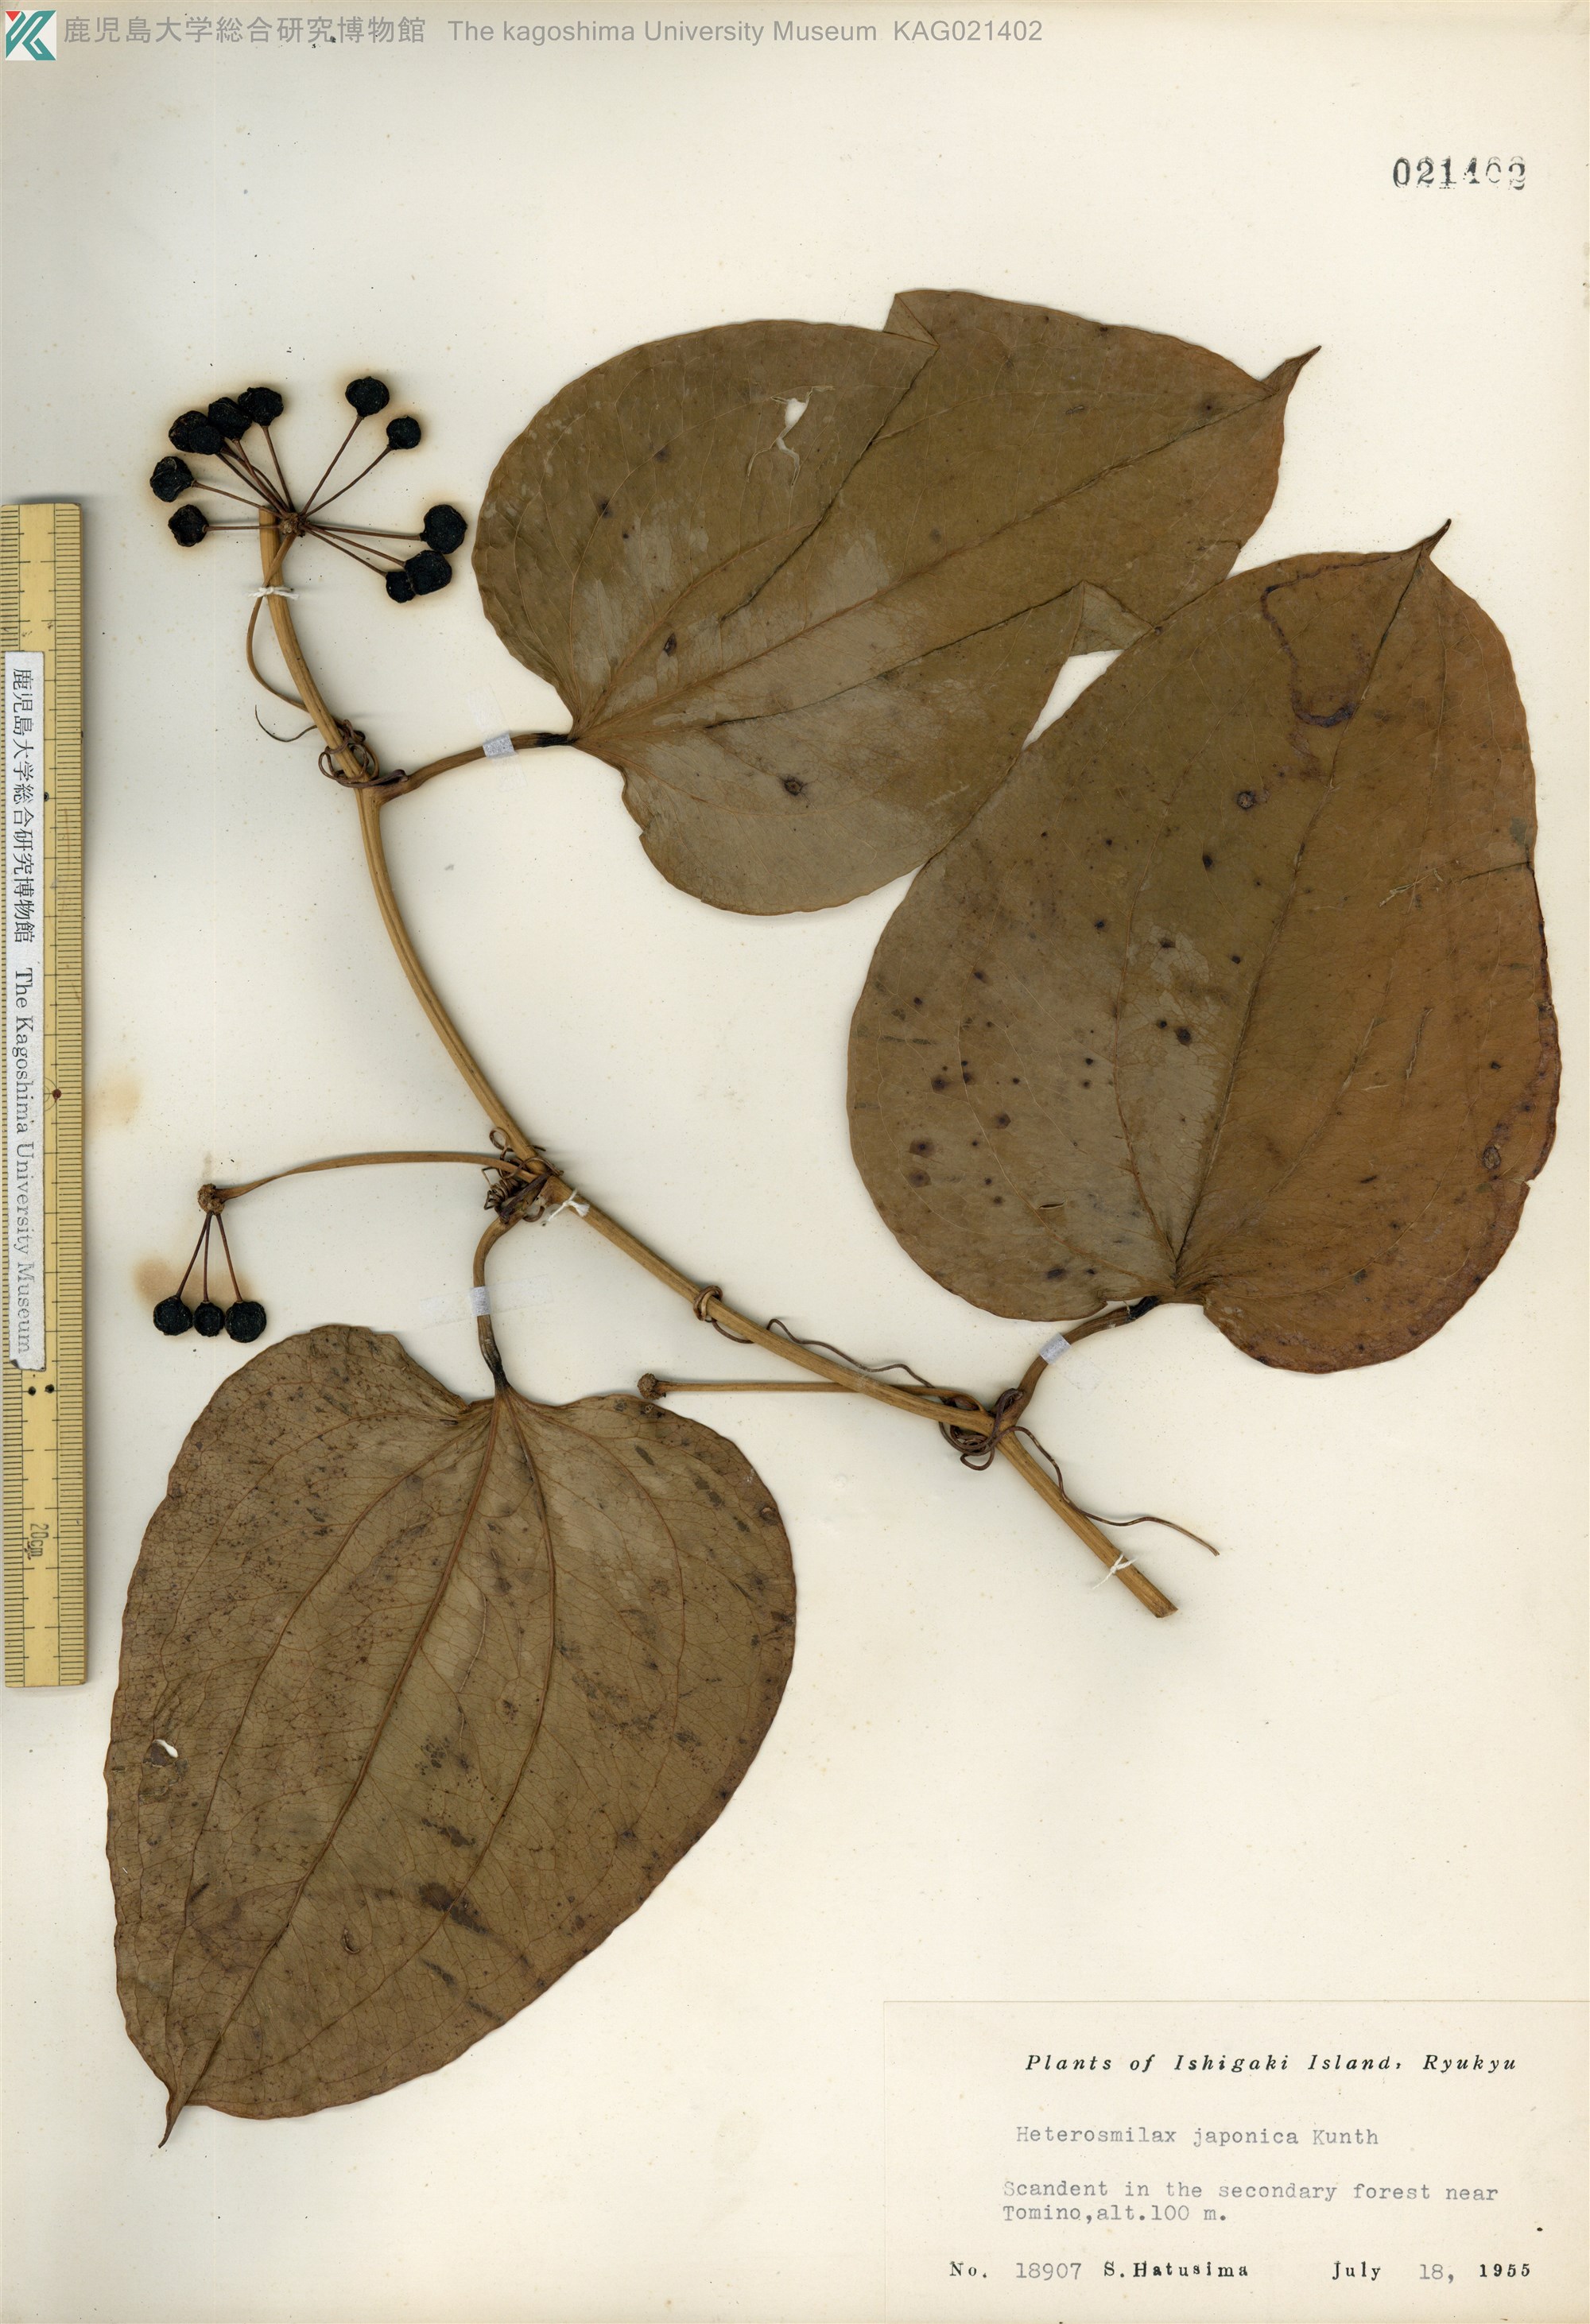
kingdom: Plantae
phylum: Tracheophyta
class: Liliopsida
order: Liliales
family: Smilacaceae
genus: Smilax
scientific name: Smilax insularis
